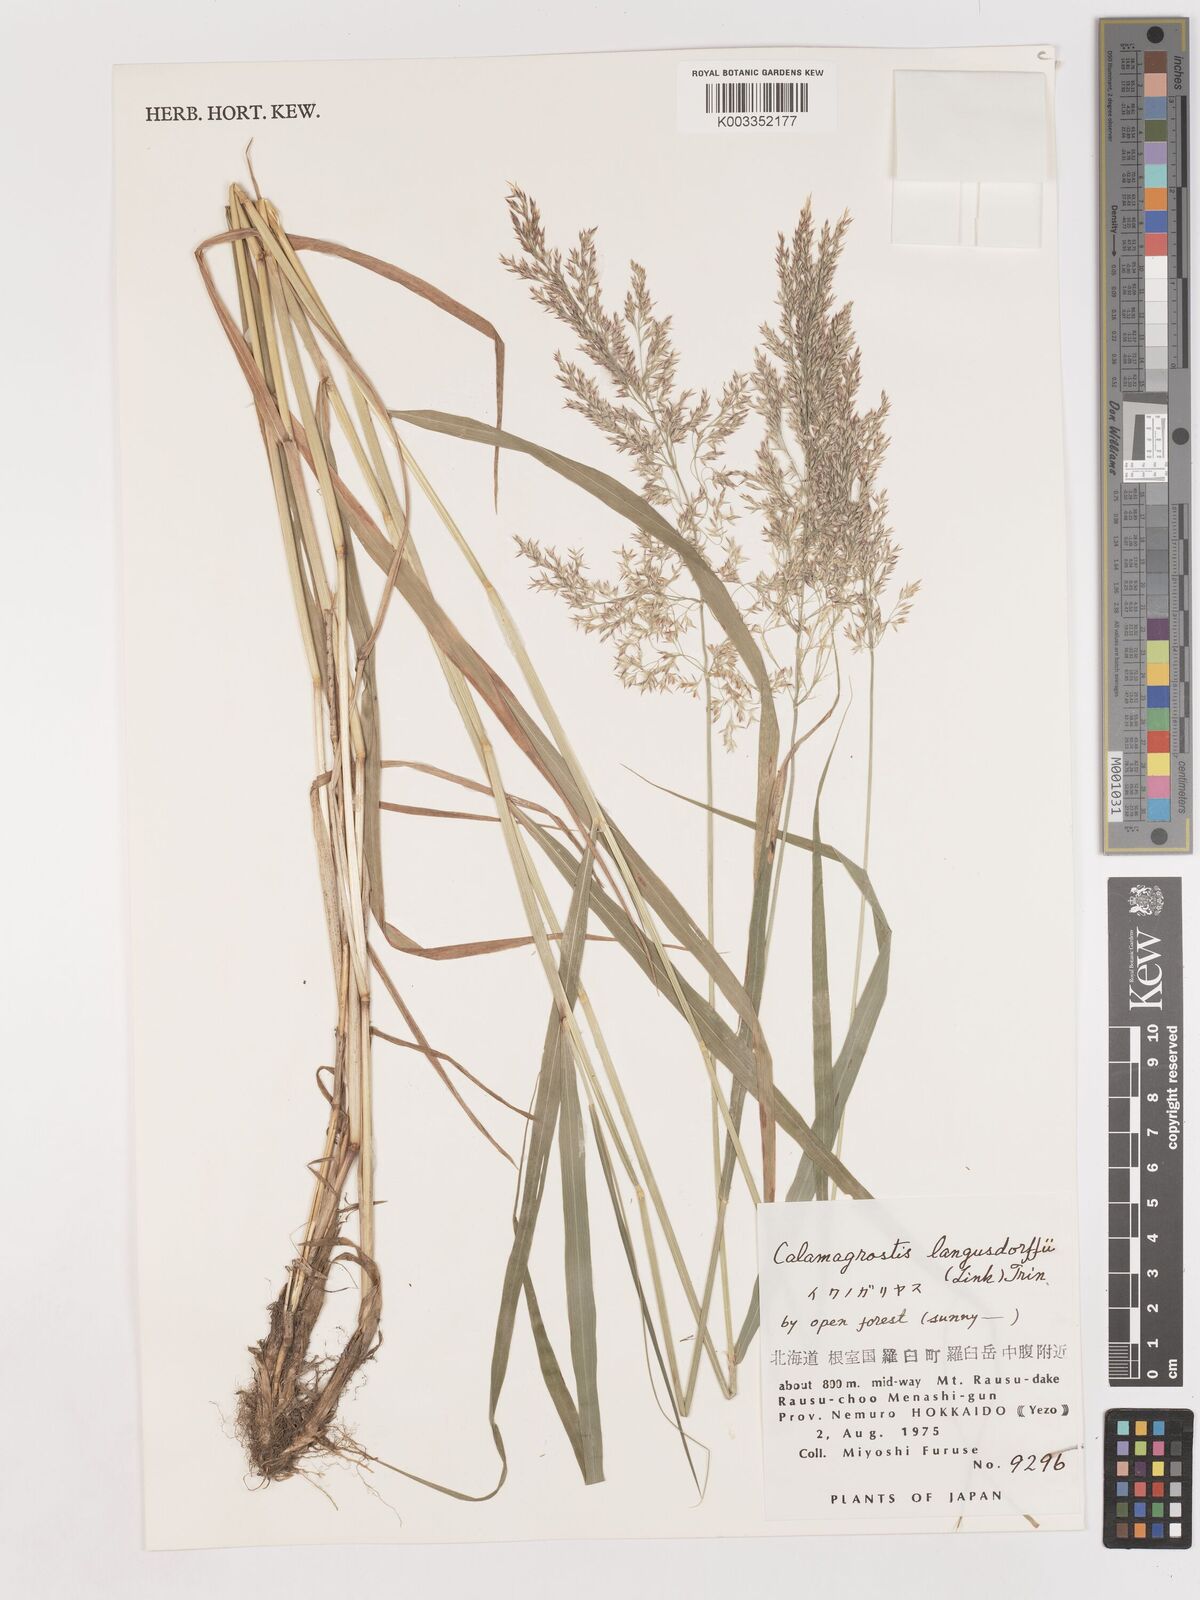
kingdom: Plantae
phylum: Tracheophyta
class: Liliopsida
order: Poales
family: Poaceae
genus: Calamagrostis
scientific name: Calamagrostis purpurea
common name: Scandinavian small-reed
